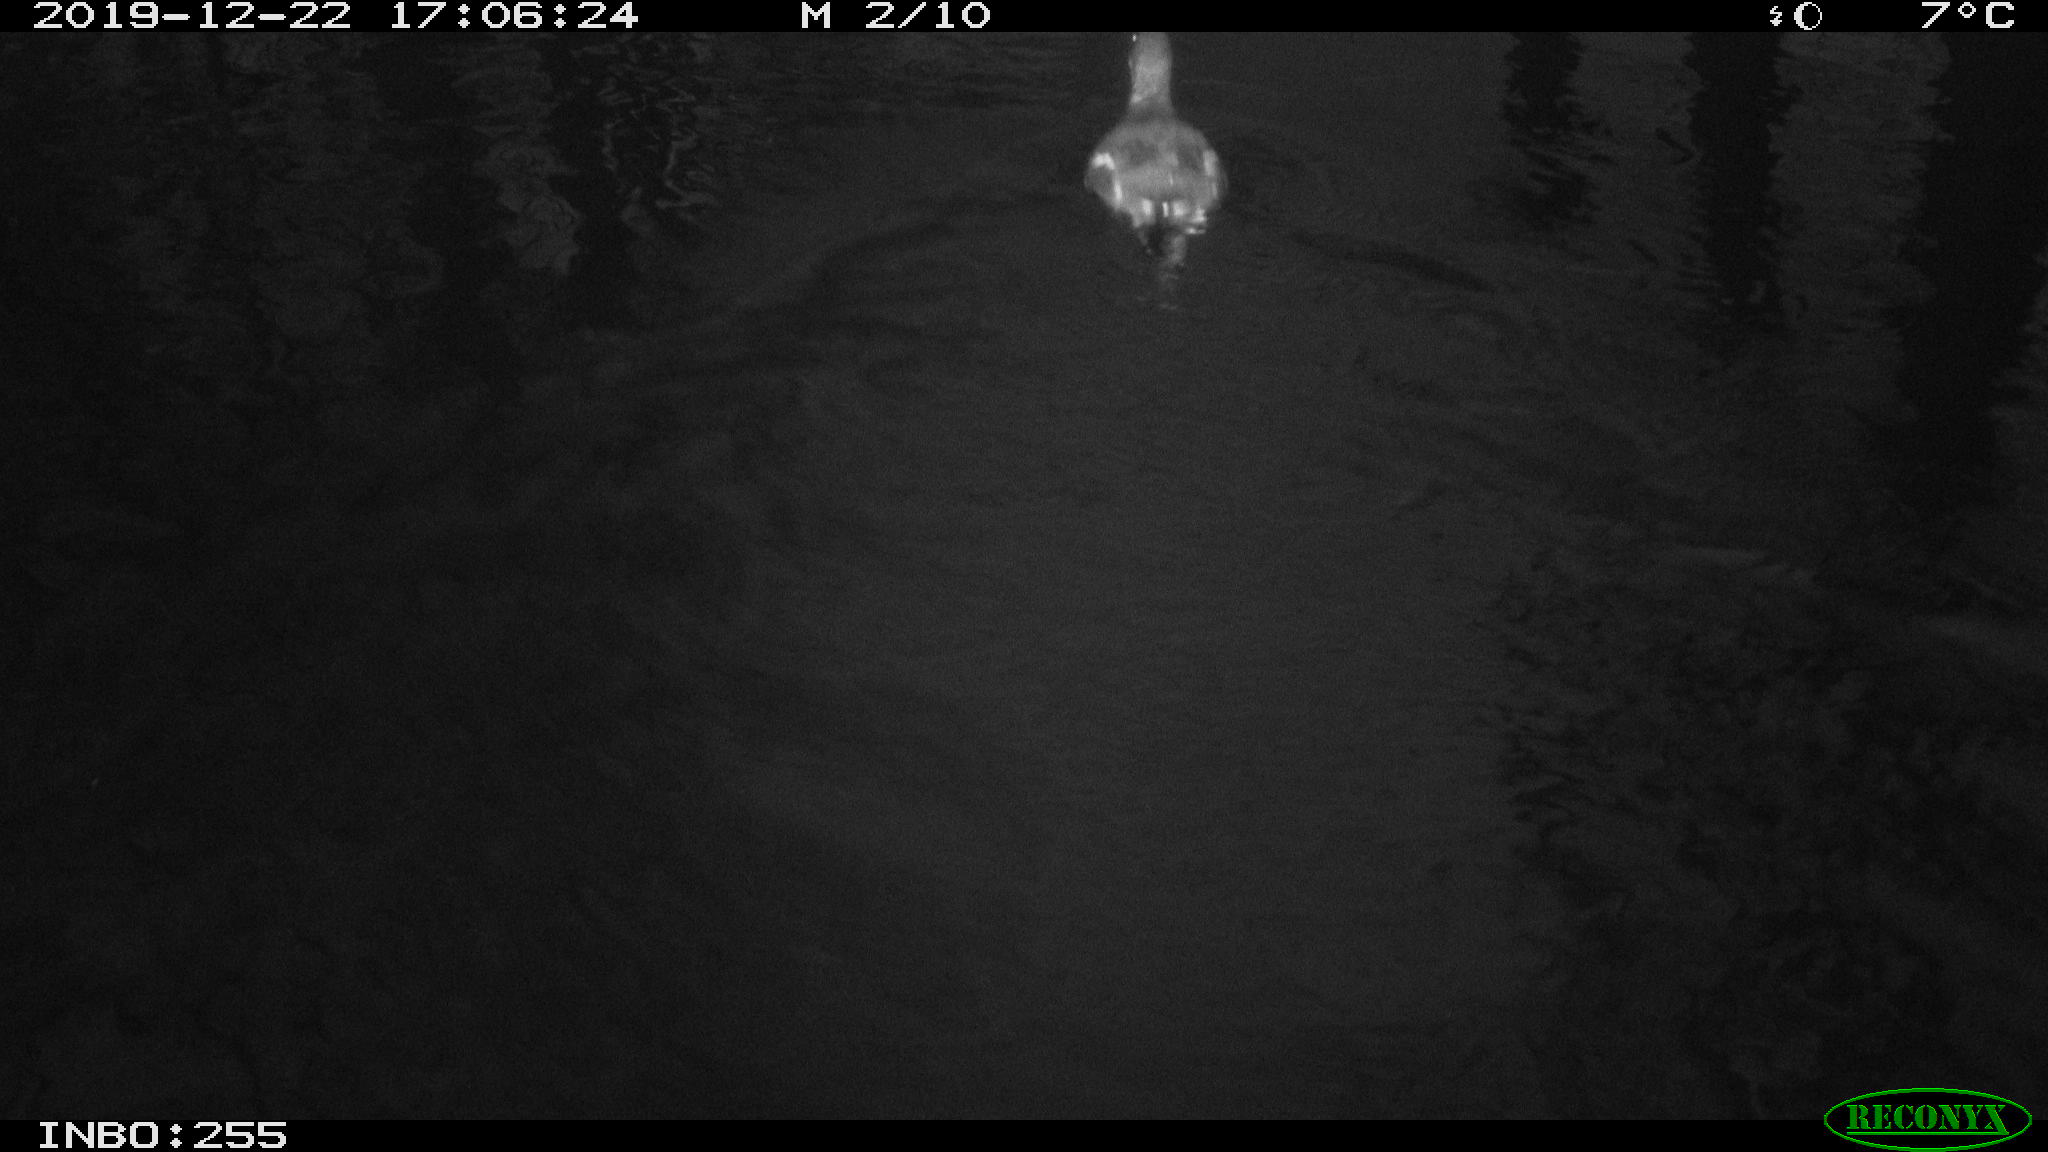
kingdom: Animalia
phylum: Chordata
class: Aves
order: Gruiformes
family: Rallidae
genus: Gallinula
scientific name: Gallinula chloropus
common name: Common moorhen
